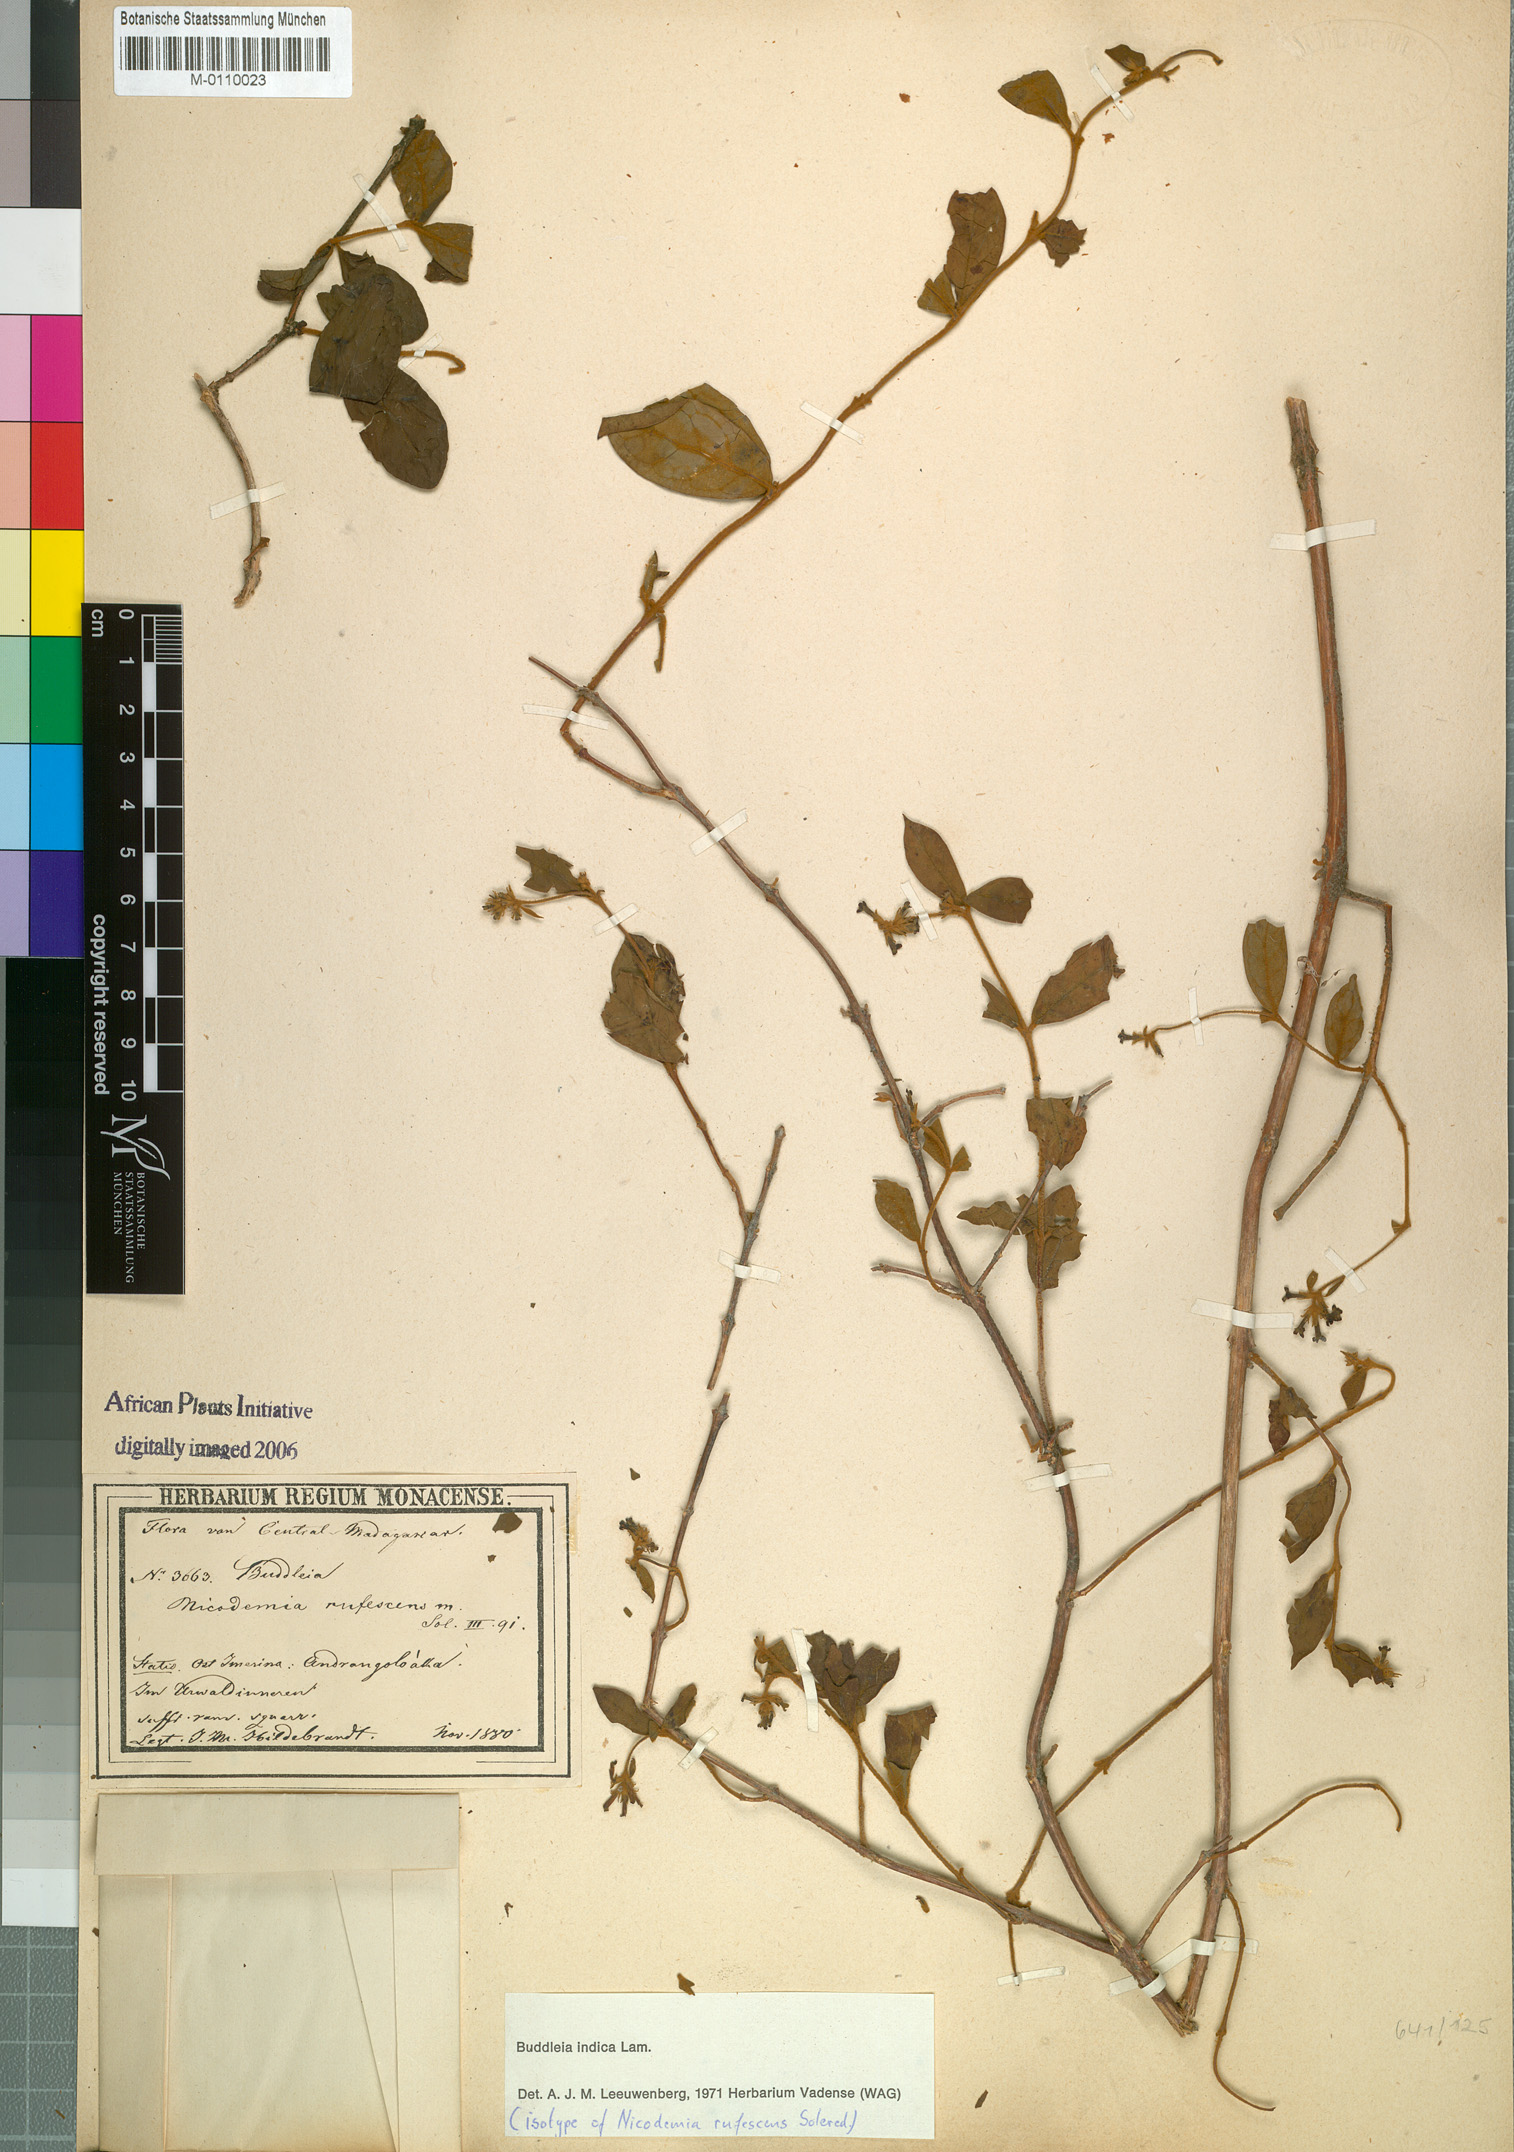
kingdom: Plantae
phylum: Tracheophyta
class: Magnoliopsida
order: Lamiales
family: Scrophulariaceae
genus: Buddleja
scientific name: Buddleja indica
